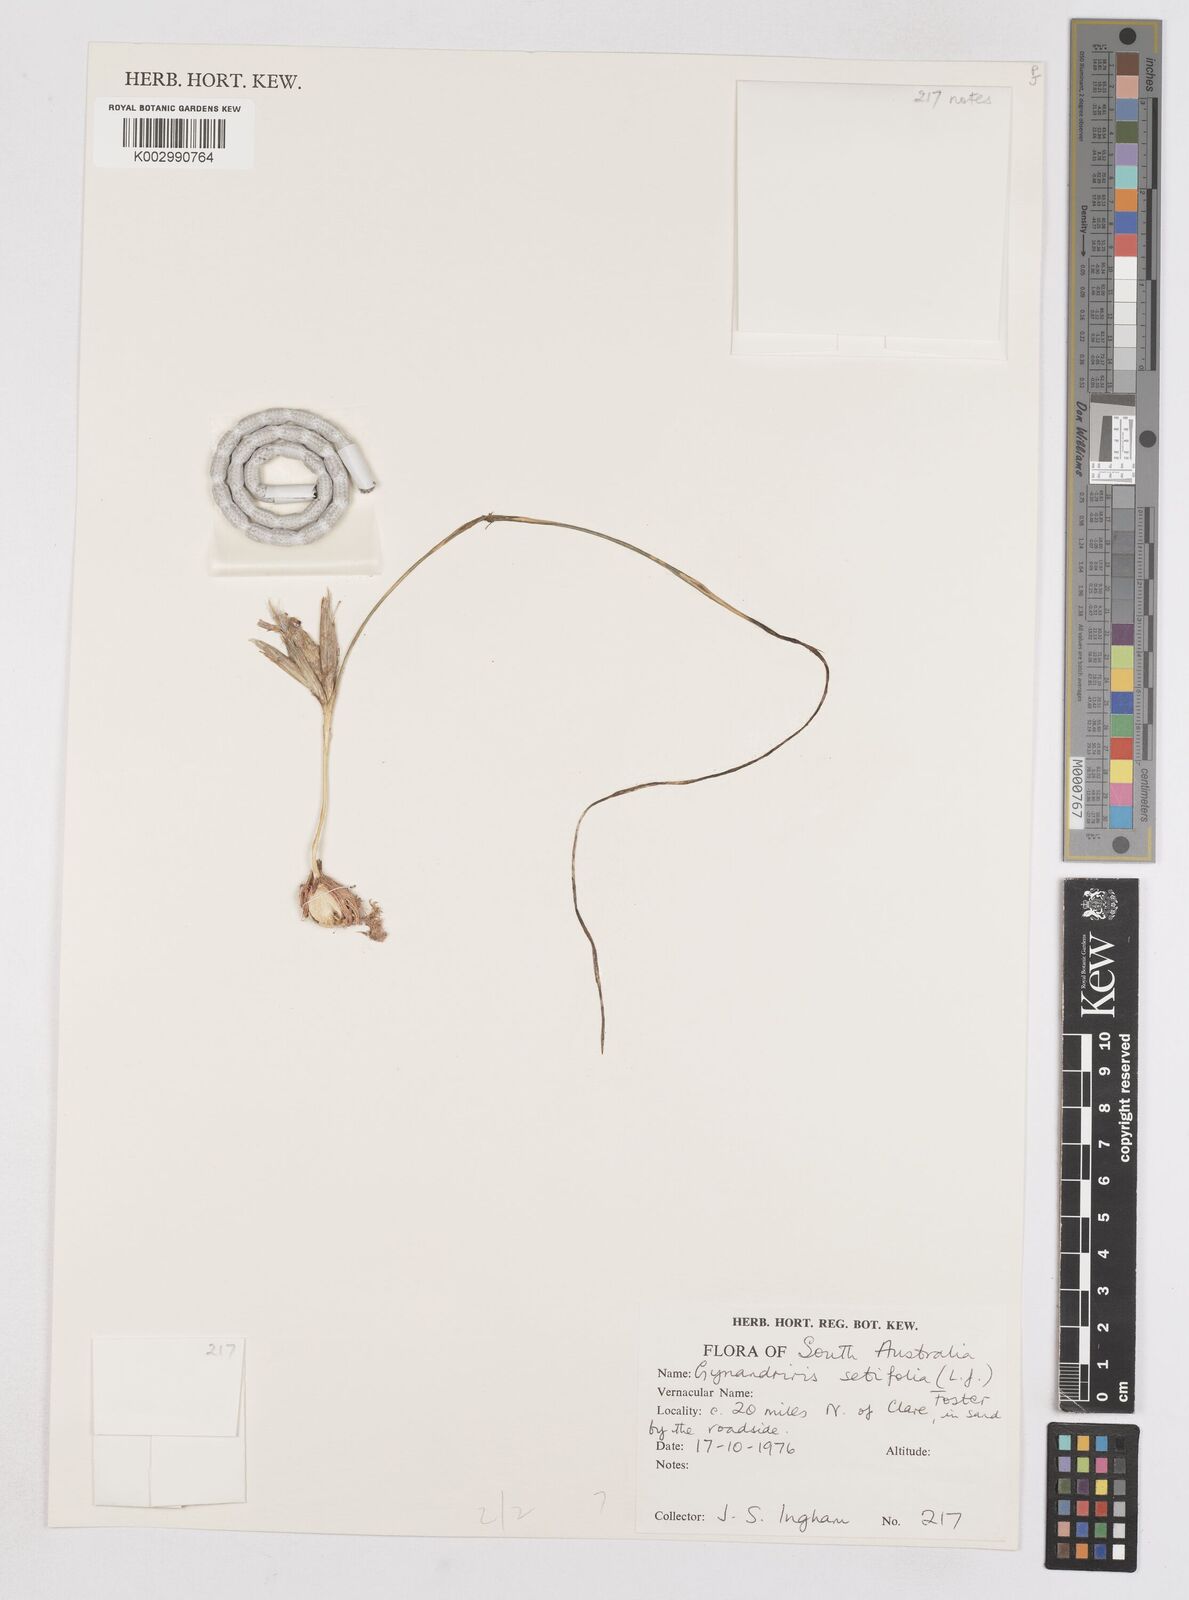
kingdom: Plantae
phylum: Tracheophyta
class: Liliopsida
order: Asparagales
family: Iridaceae
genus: Moraea
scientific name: Moraea setifolia
